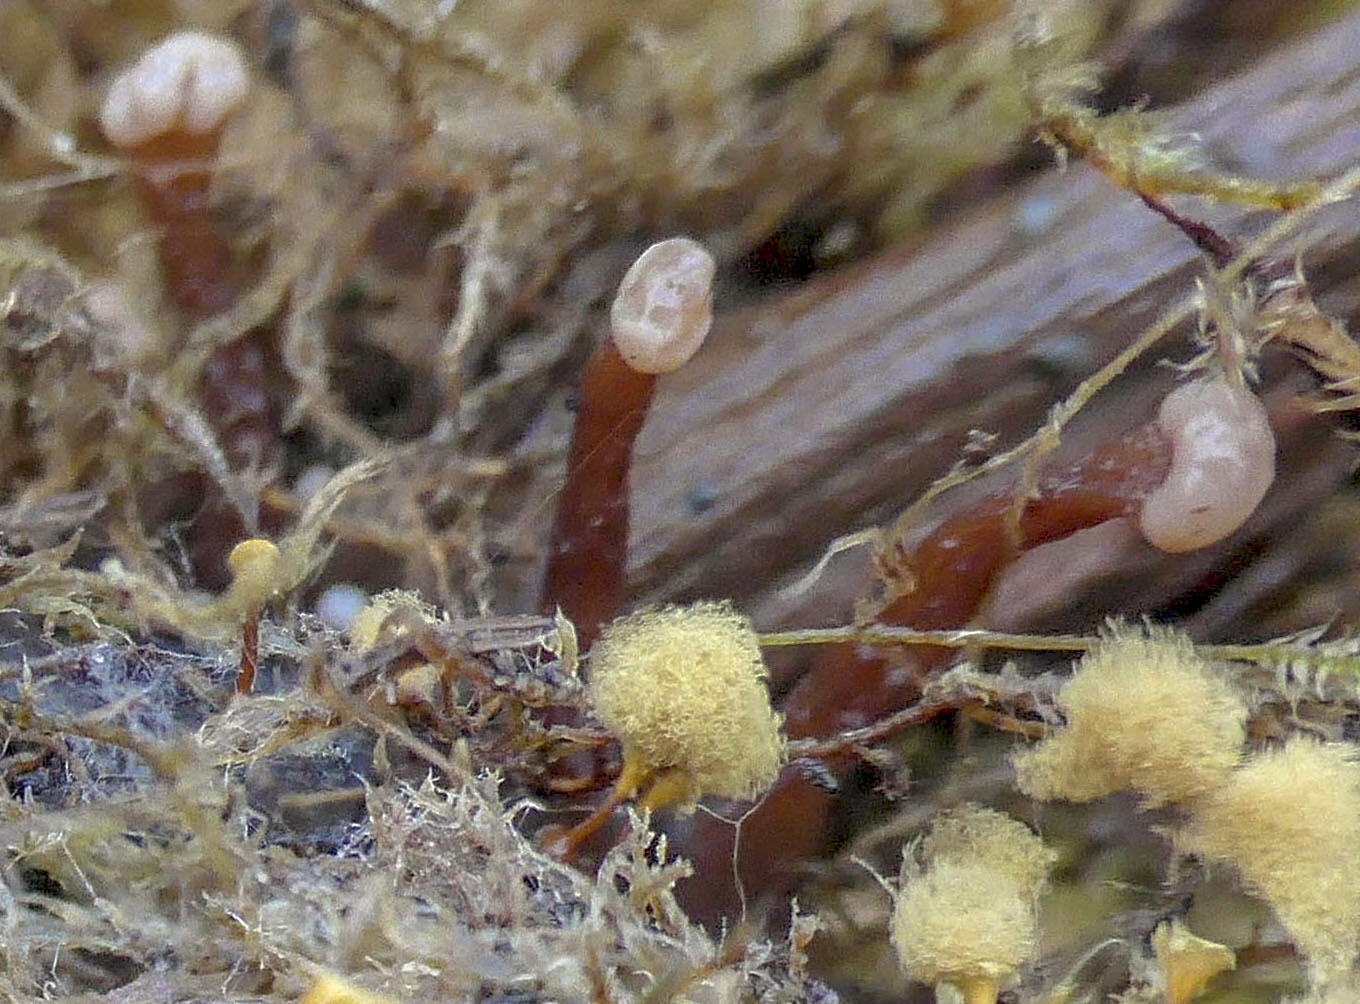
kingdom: Fungi
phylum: Ascomycota
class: Leotiomycetes
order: Helotiales
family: Gelatinodiscaceae
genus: Ascocoryne
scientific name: Ascocoryne albida
